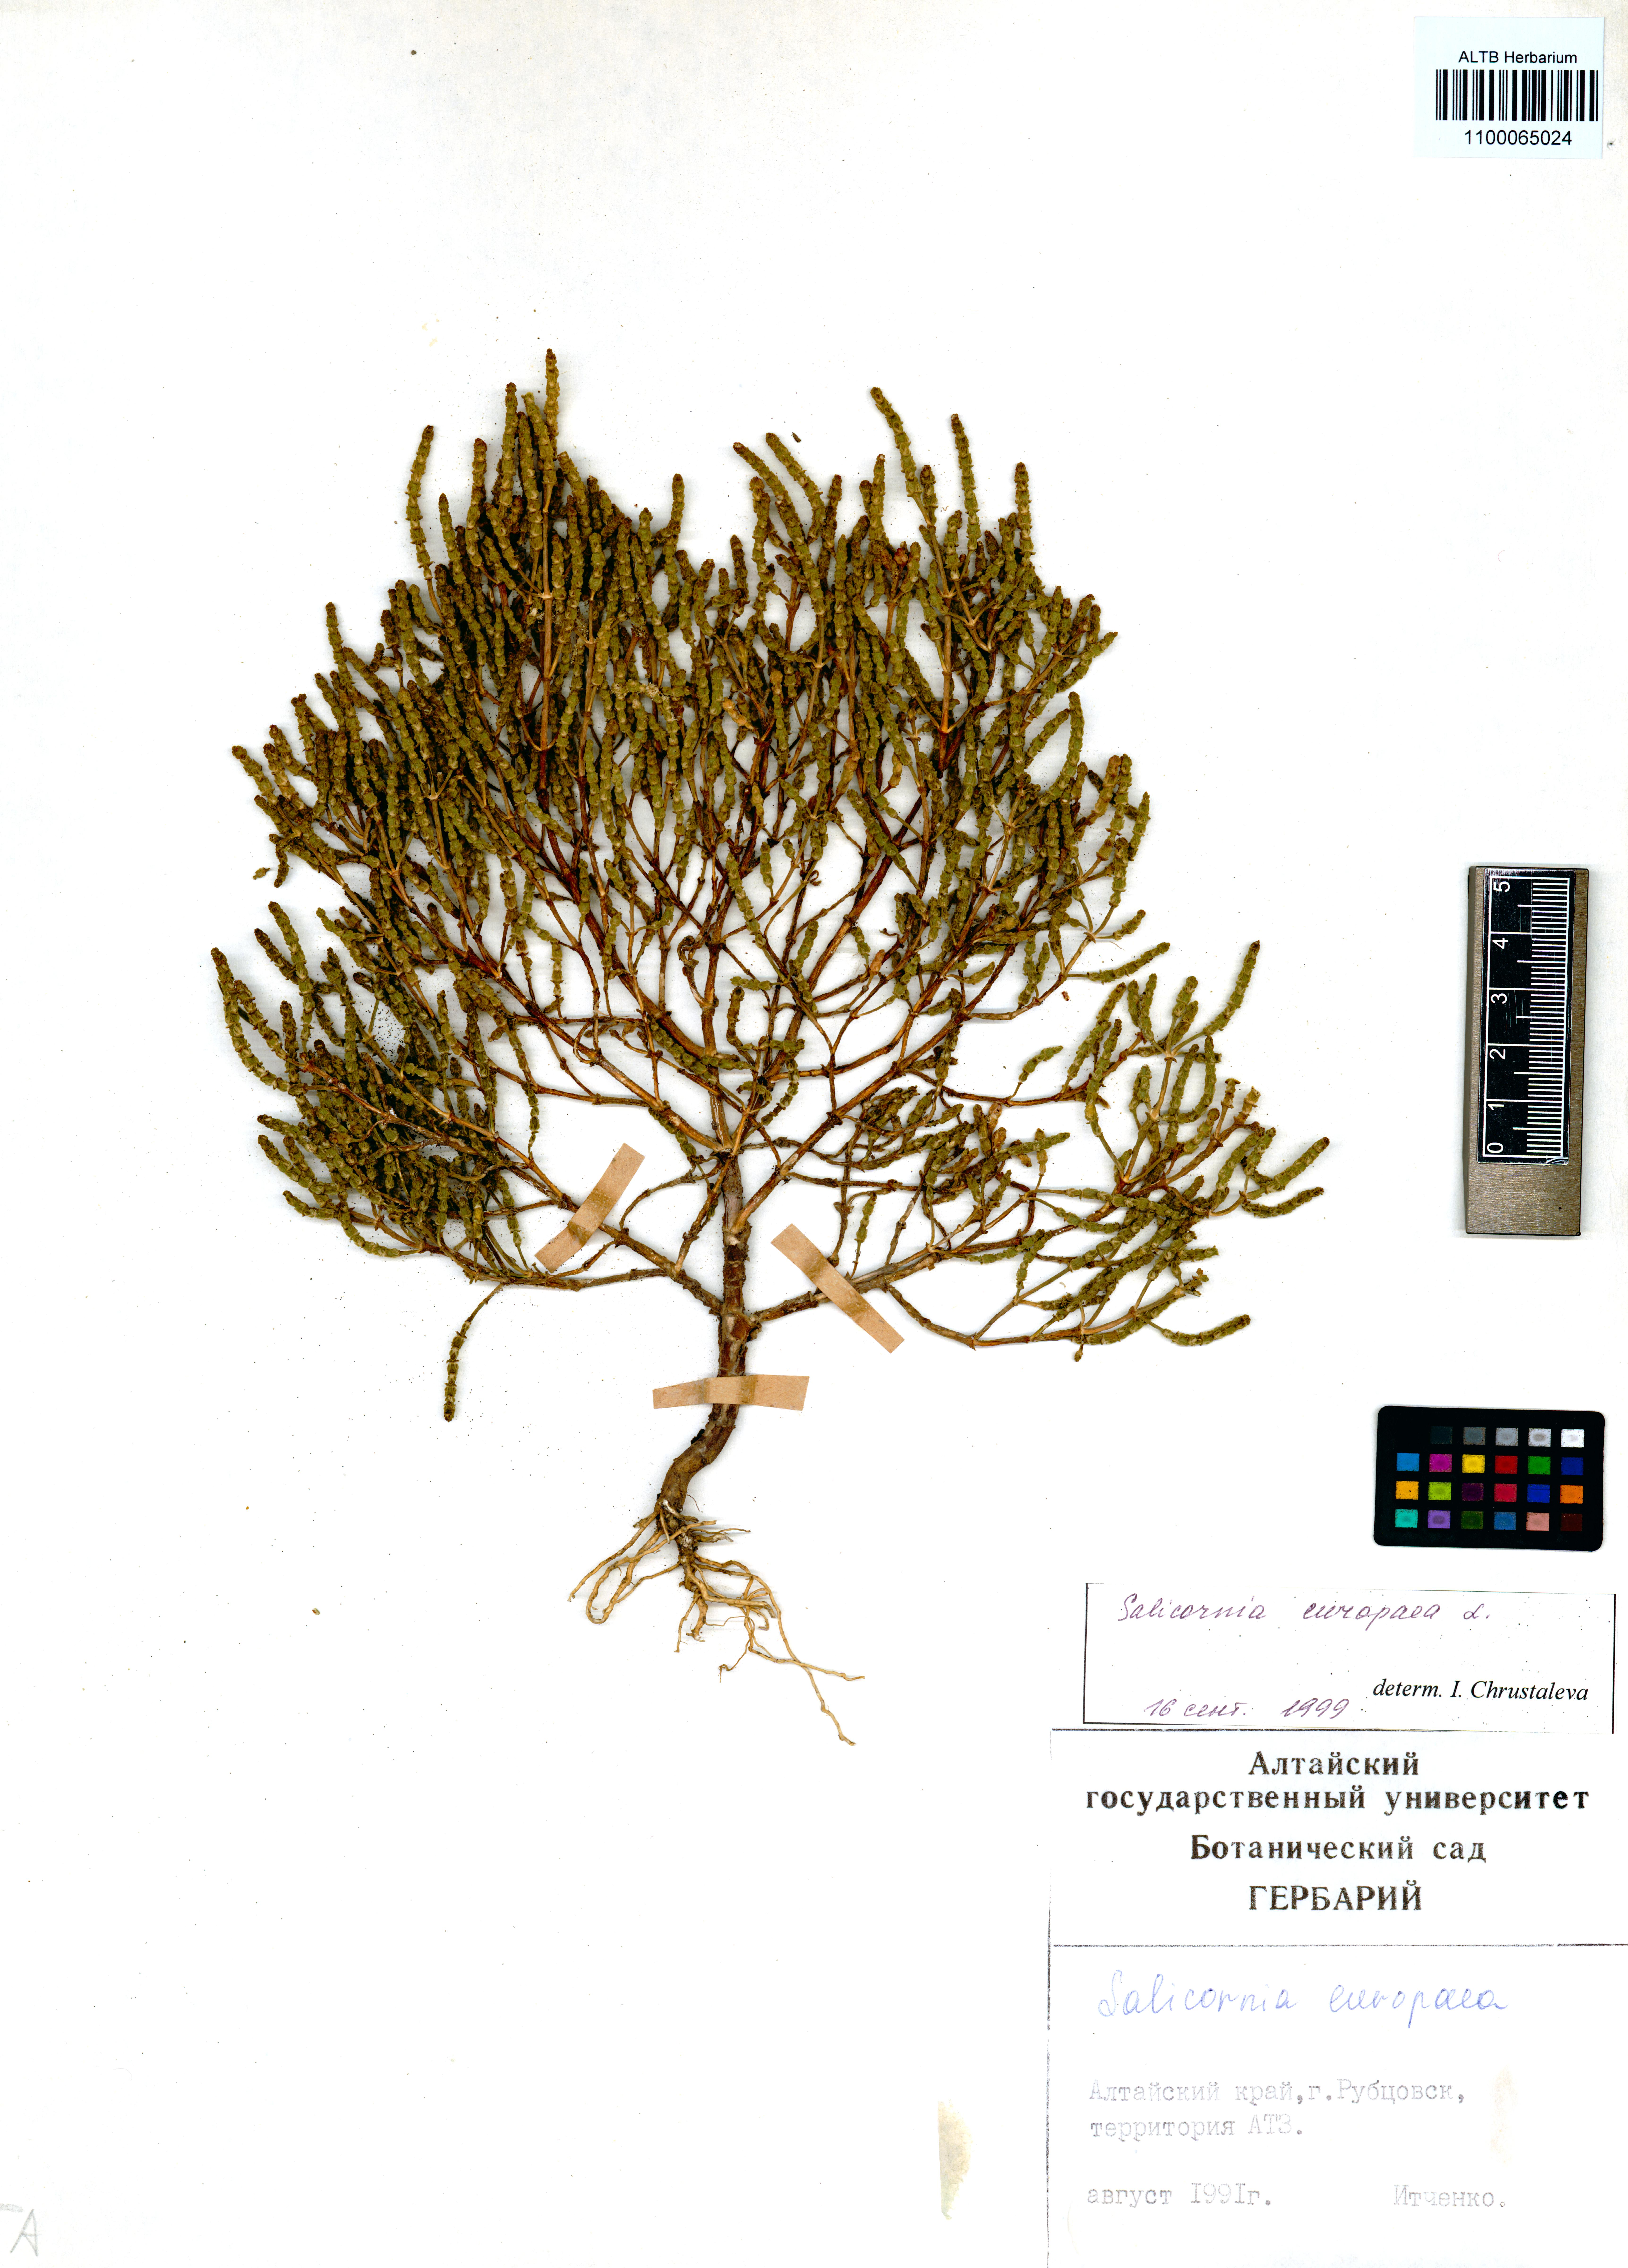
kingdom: Plantae
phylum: Tracheophyta
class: Magnoliopsida
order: Caryophyllales
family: Amaranthaceae
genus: Salicornia
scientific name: Salicornia europaea
